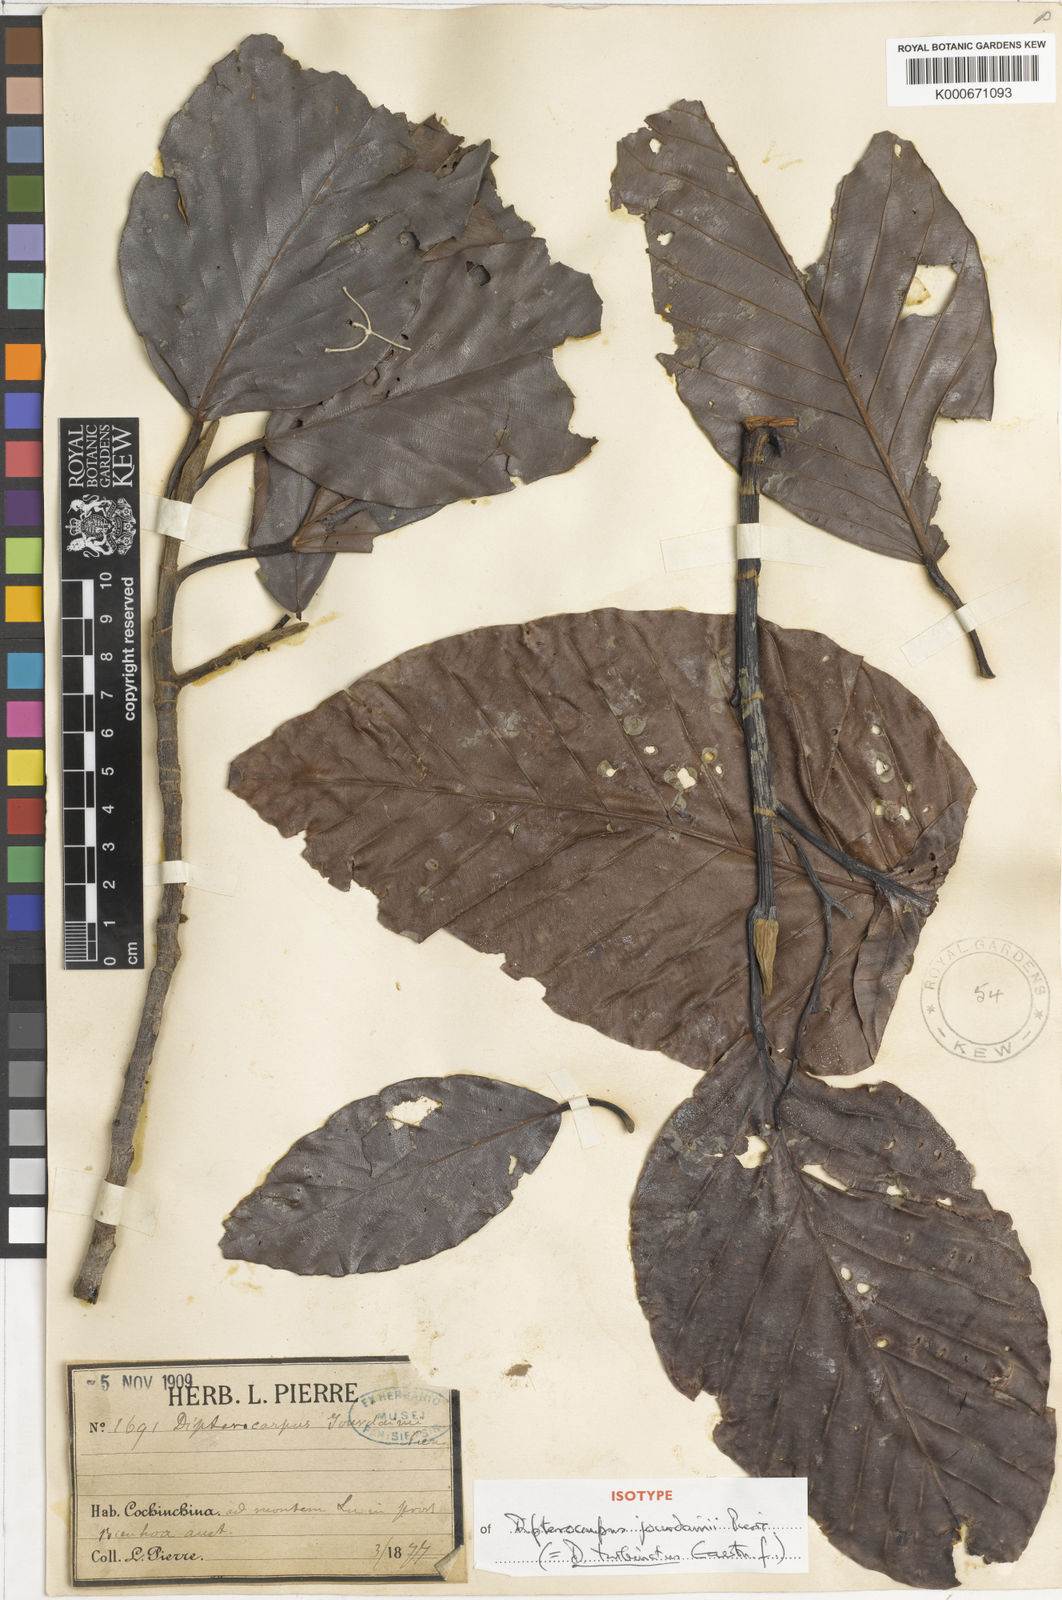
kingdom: Plantae
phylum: Tracheophyta
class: Magnoliopsida
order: Malvales
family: Dipterocarpaceae
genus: Dipterocarpus
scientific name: Dipterocarpus turbinatus
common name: East indian copaiba balsam
